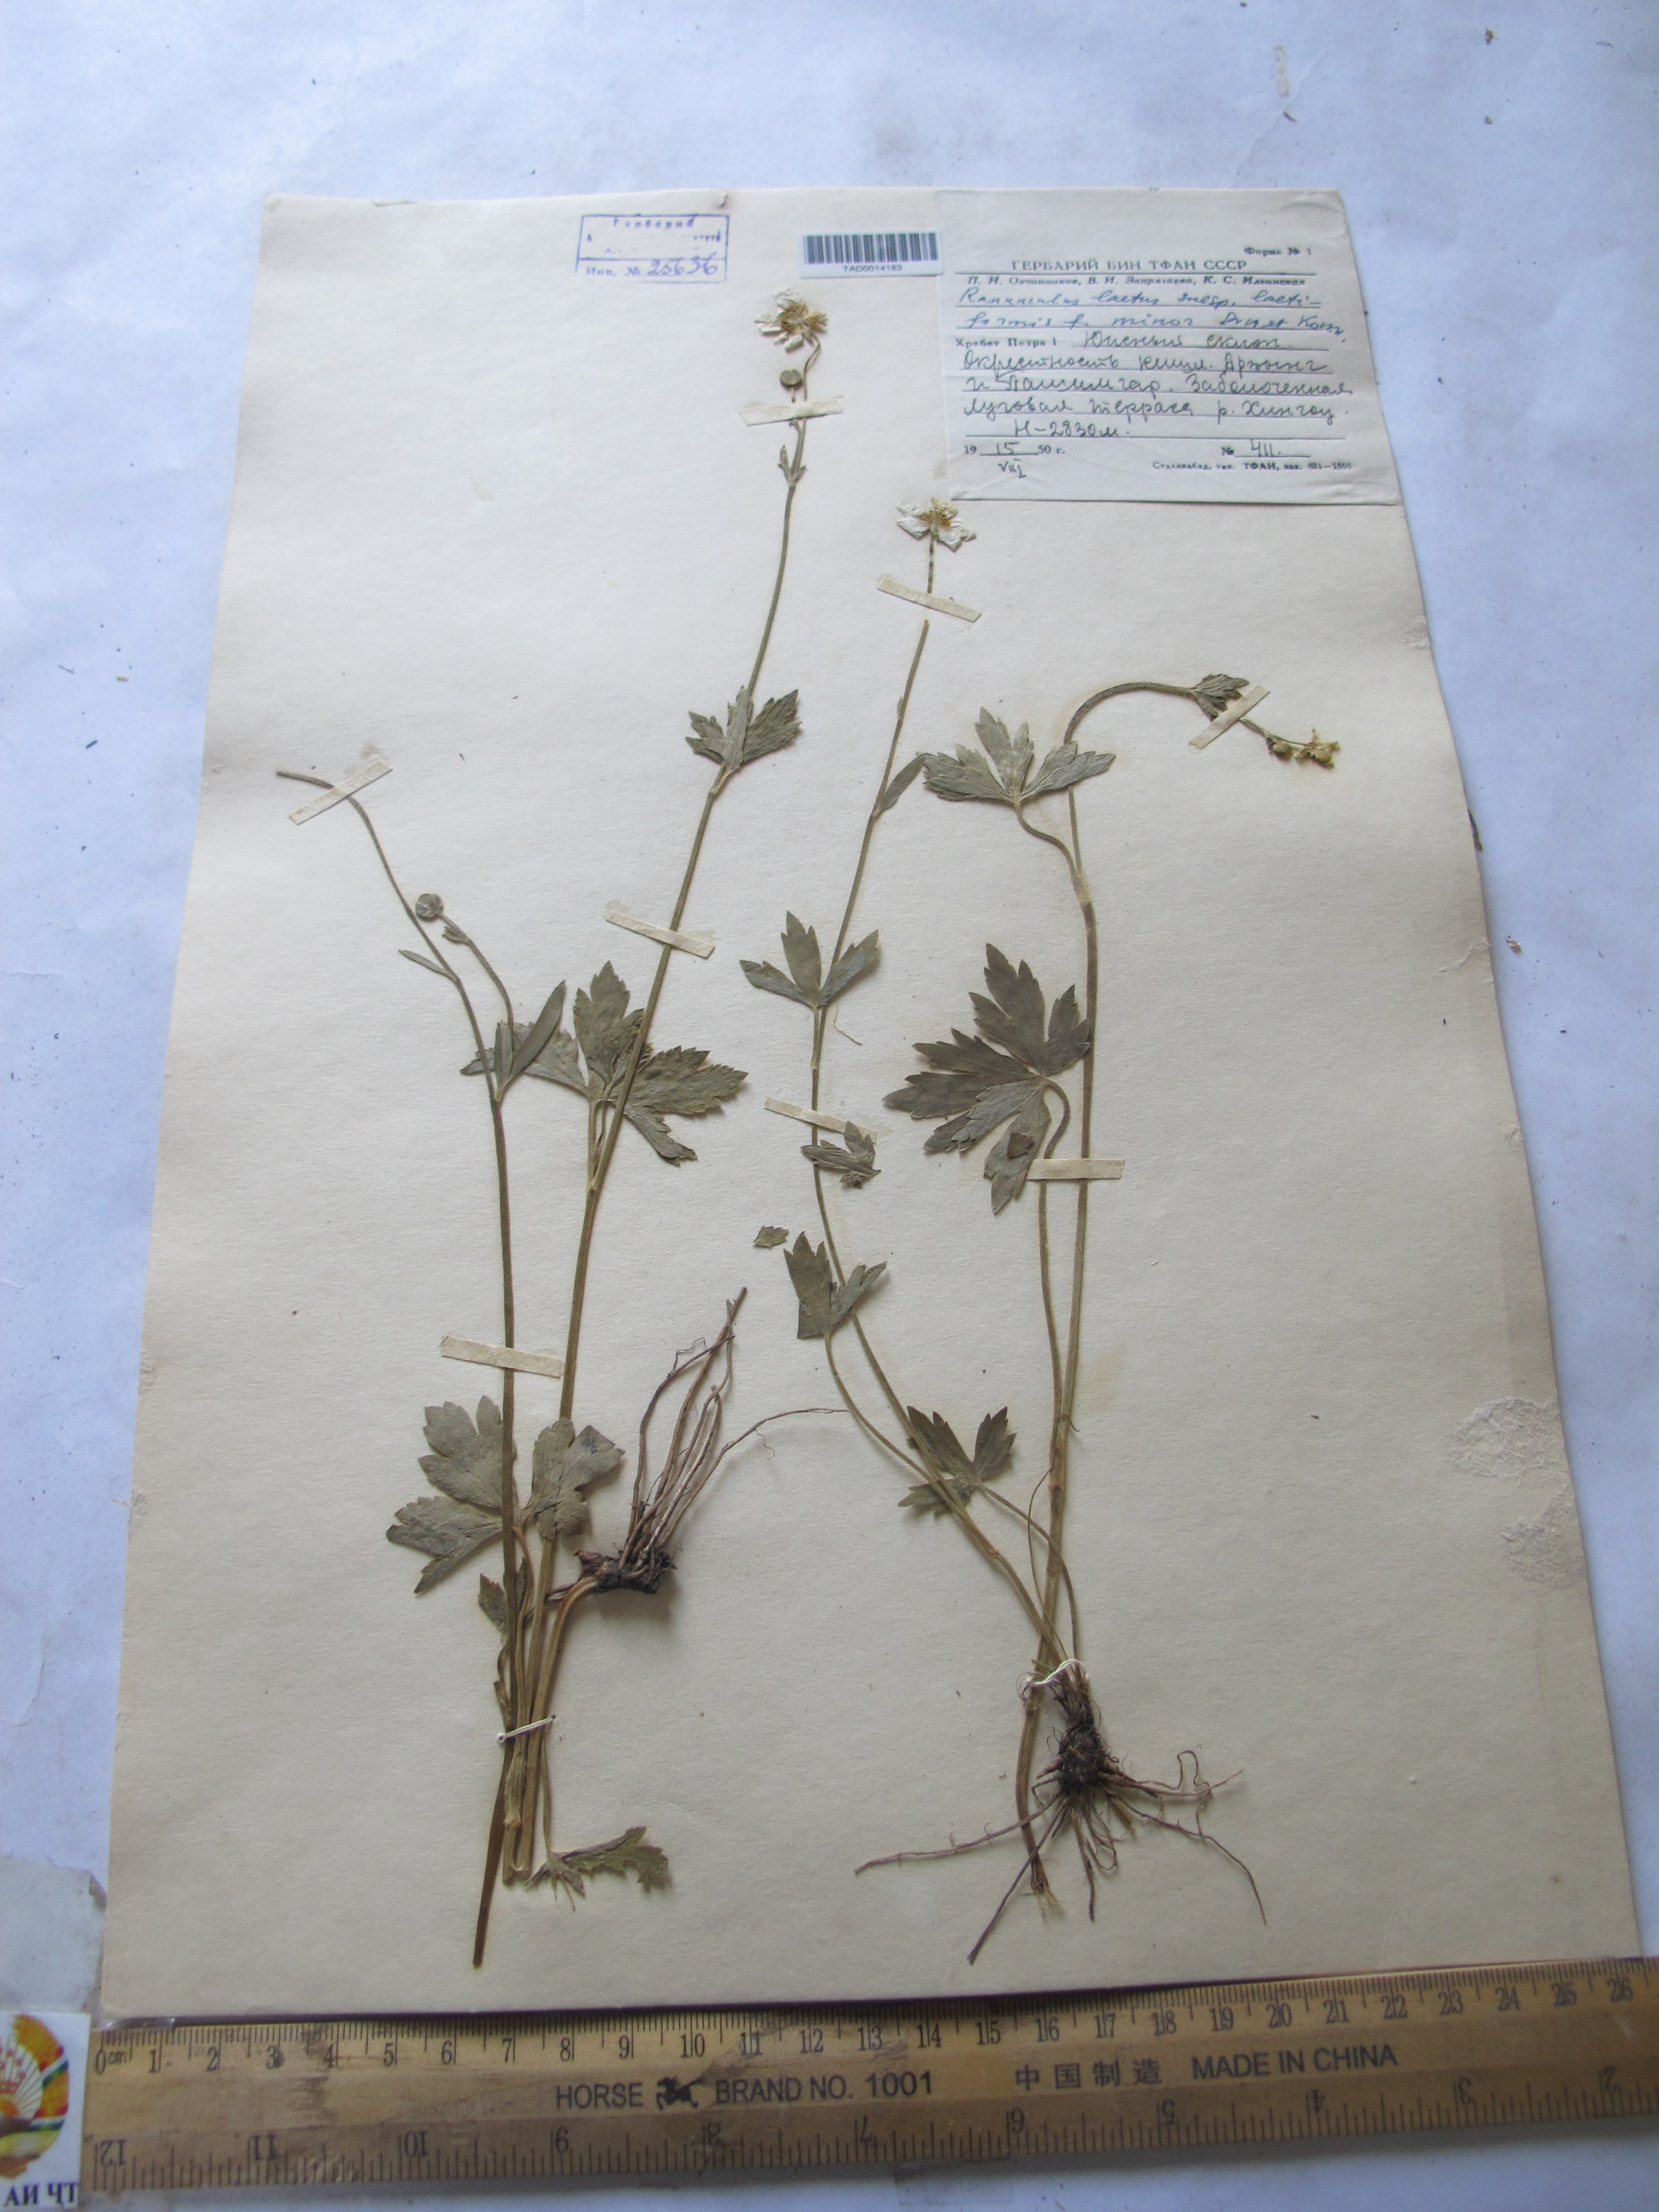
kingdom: Plantae
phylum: Tracheophyta
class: Magnoliopsida
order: Ranunculales
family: Ranunculaceae
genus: Ranunculus
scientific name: Ranunculus distans
